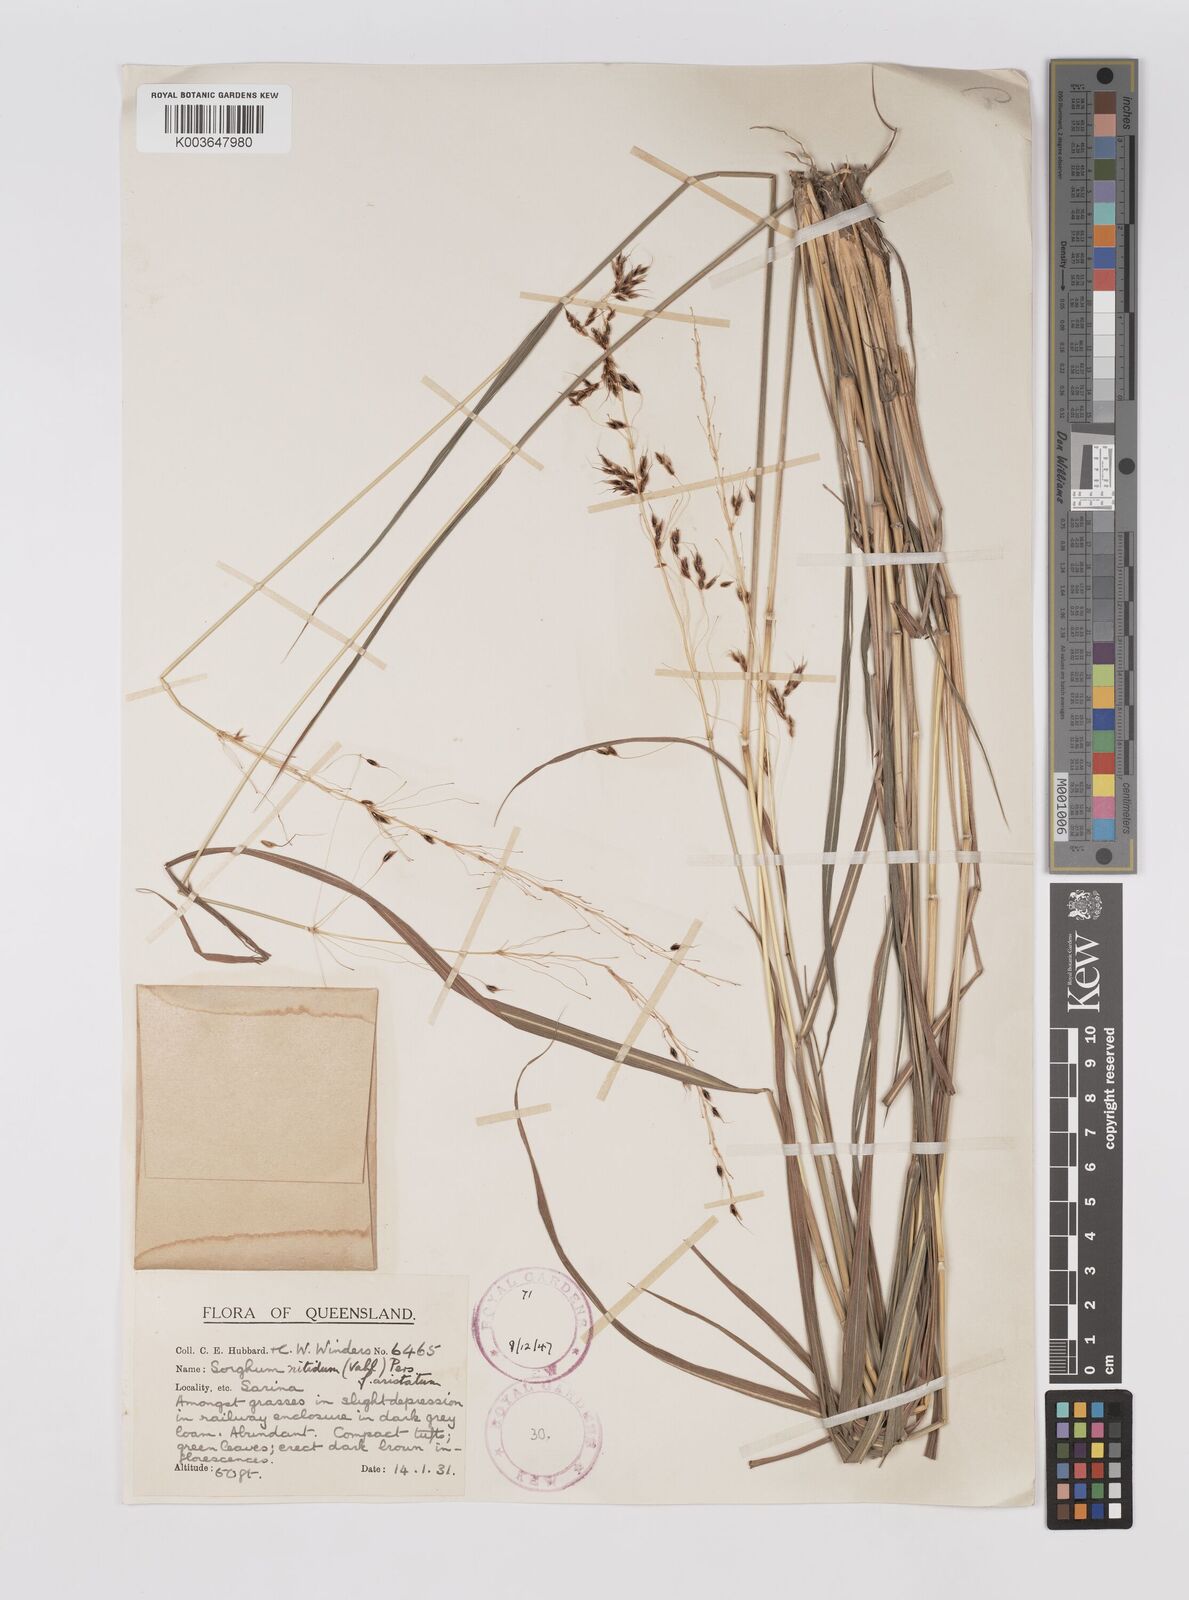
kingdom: Plantae
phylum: Tracheophyta
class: Liliopsida
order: Poales
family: Poaceae
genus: Sorghum
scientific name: Sorghum nitidum
